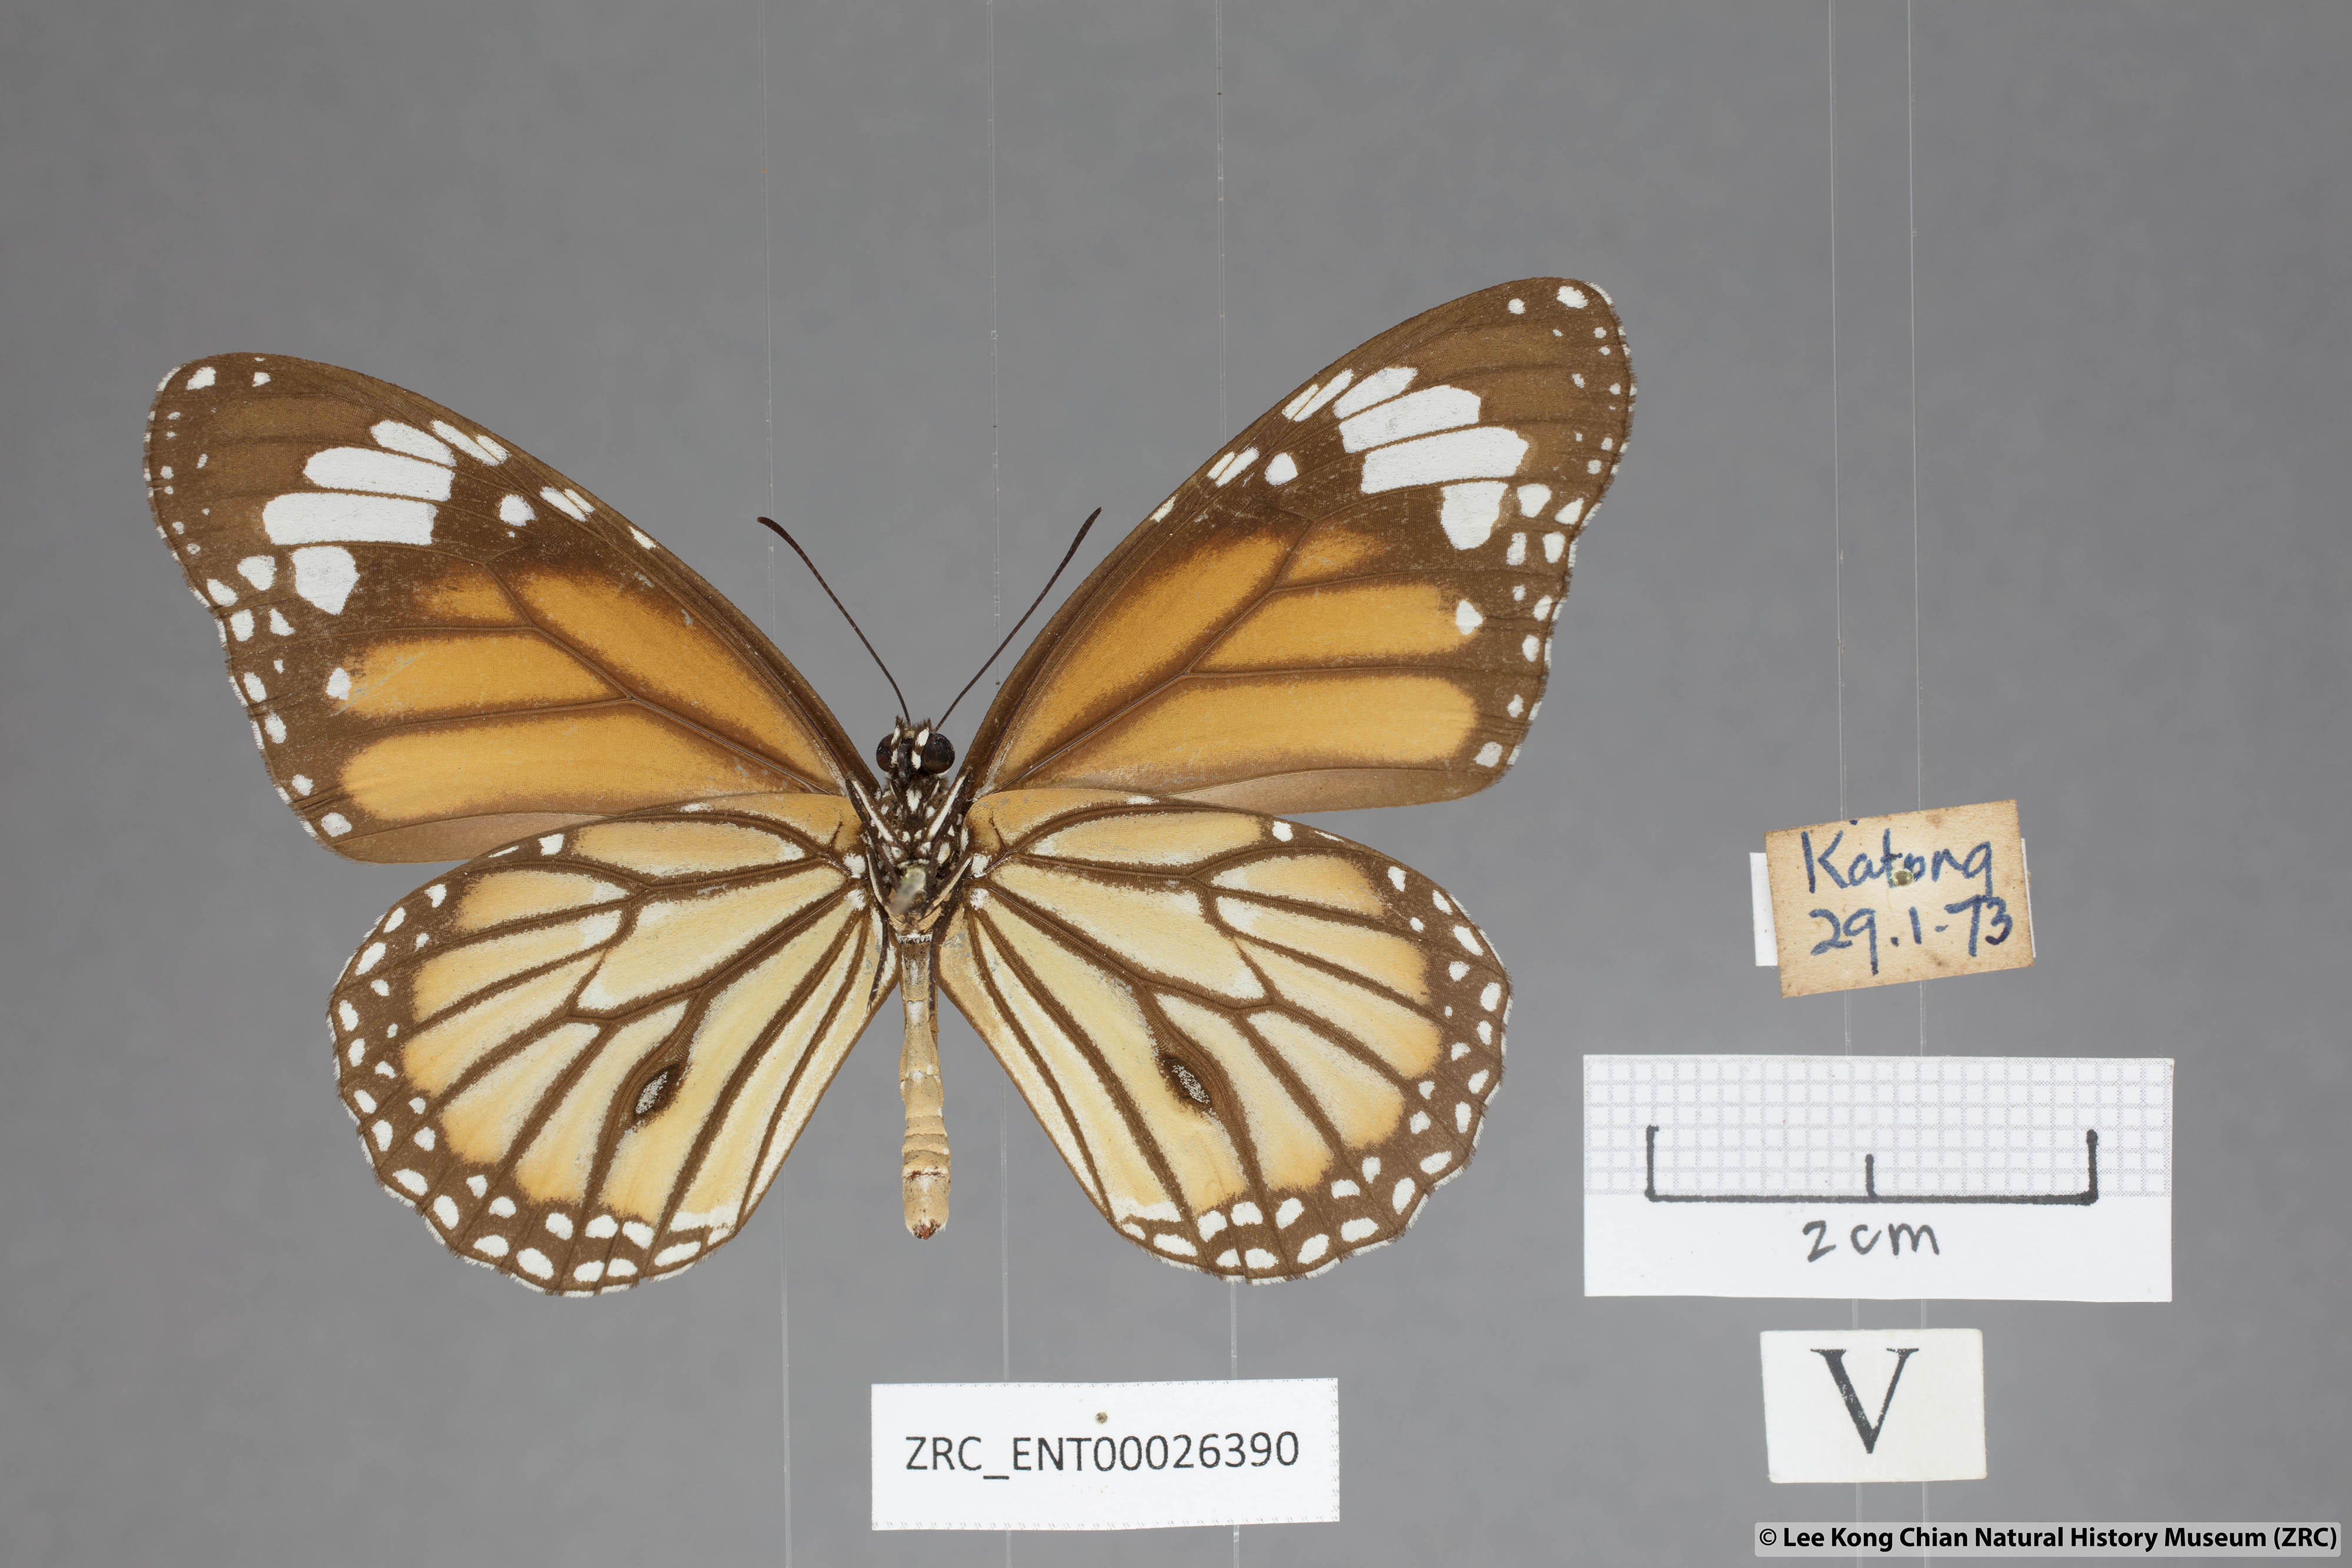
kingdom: Animalia
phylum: Arthropoda
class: Insecta
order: Lepidoptera
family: Nymphalidae
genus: Danaus
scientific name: Danaus genutia
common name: Common tiger butterfly
